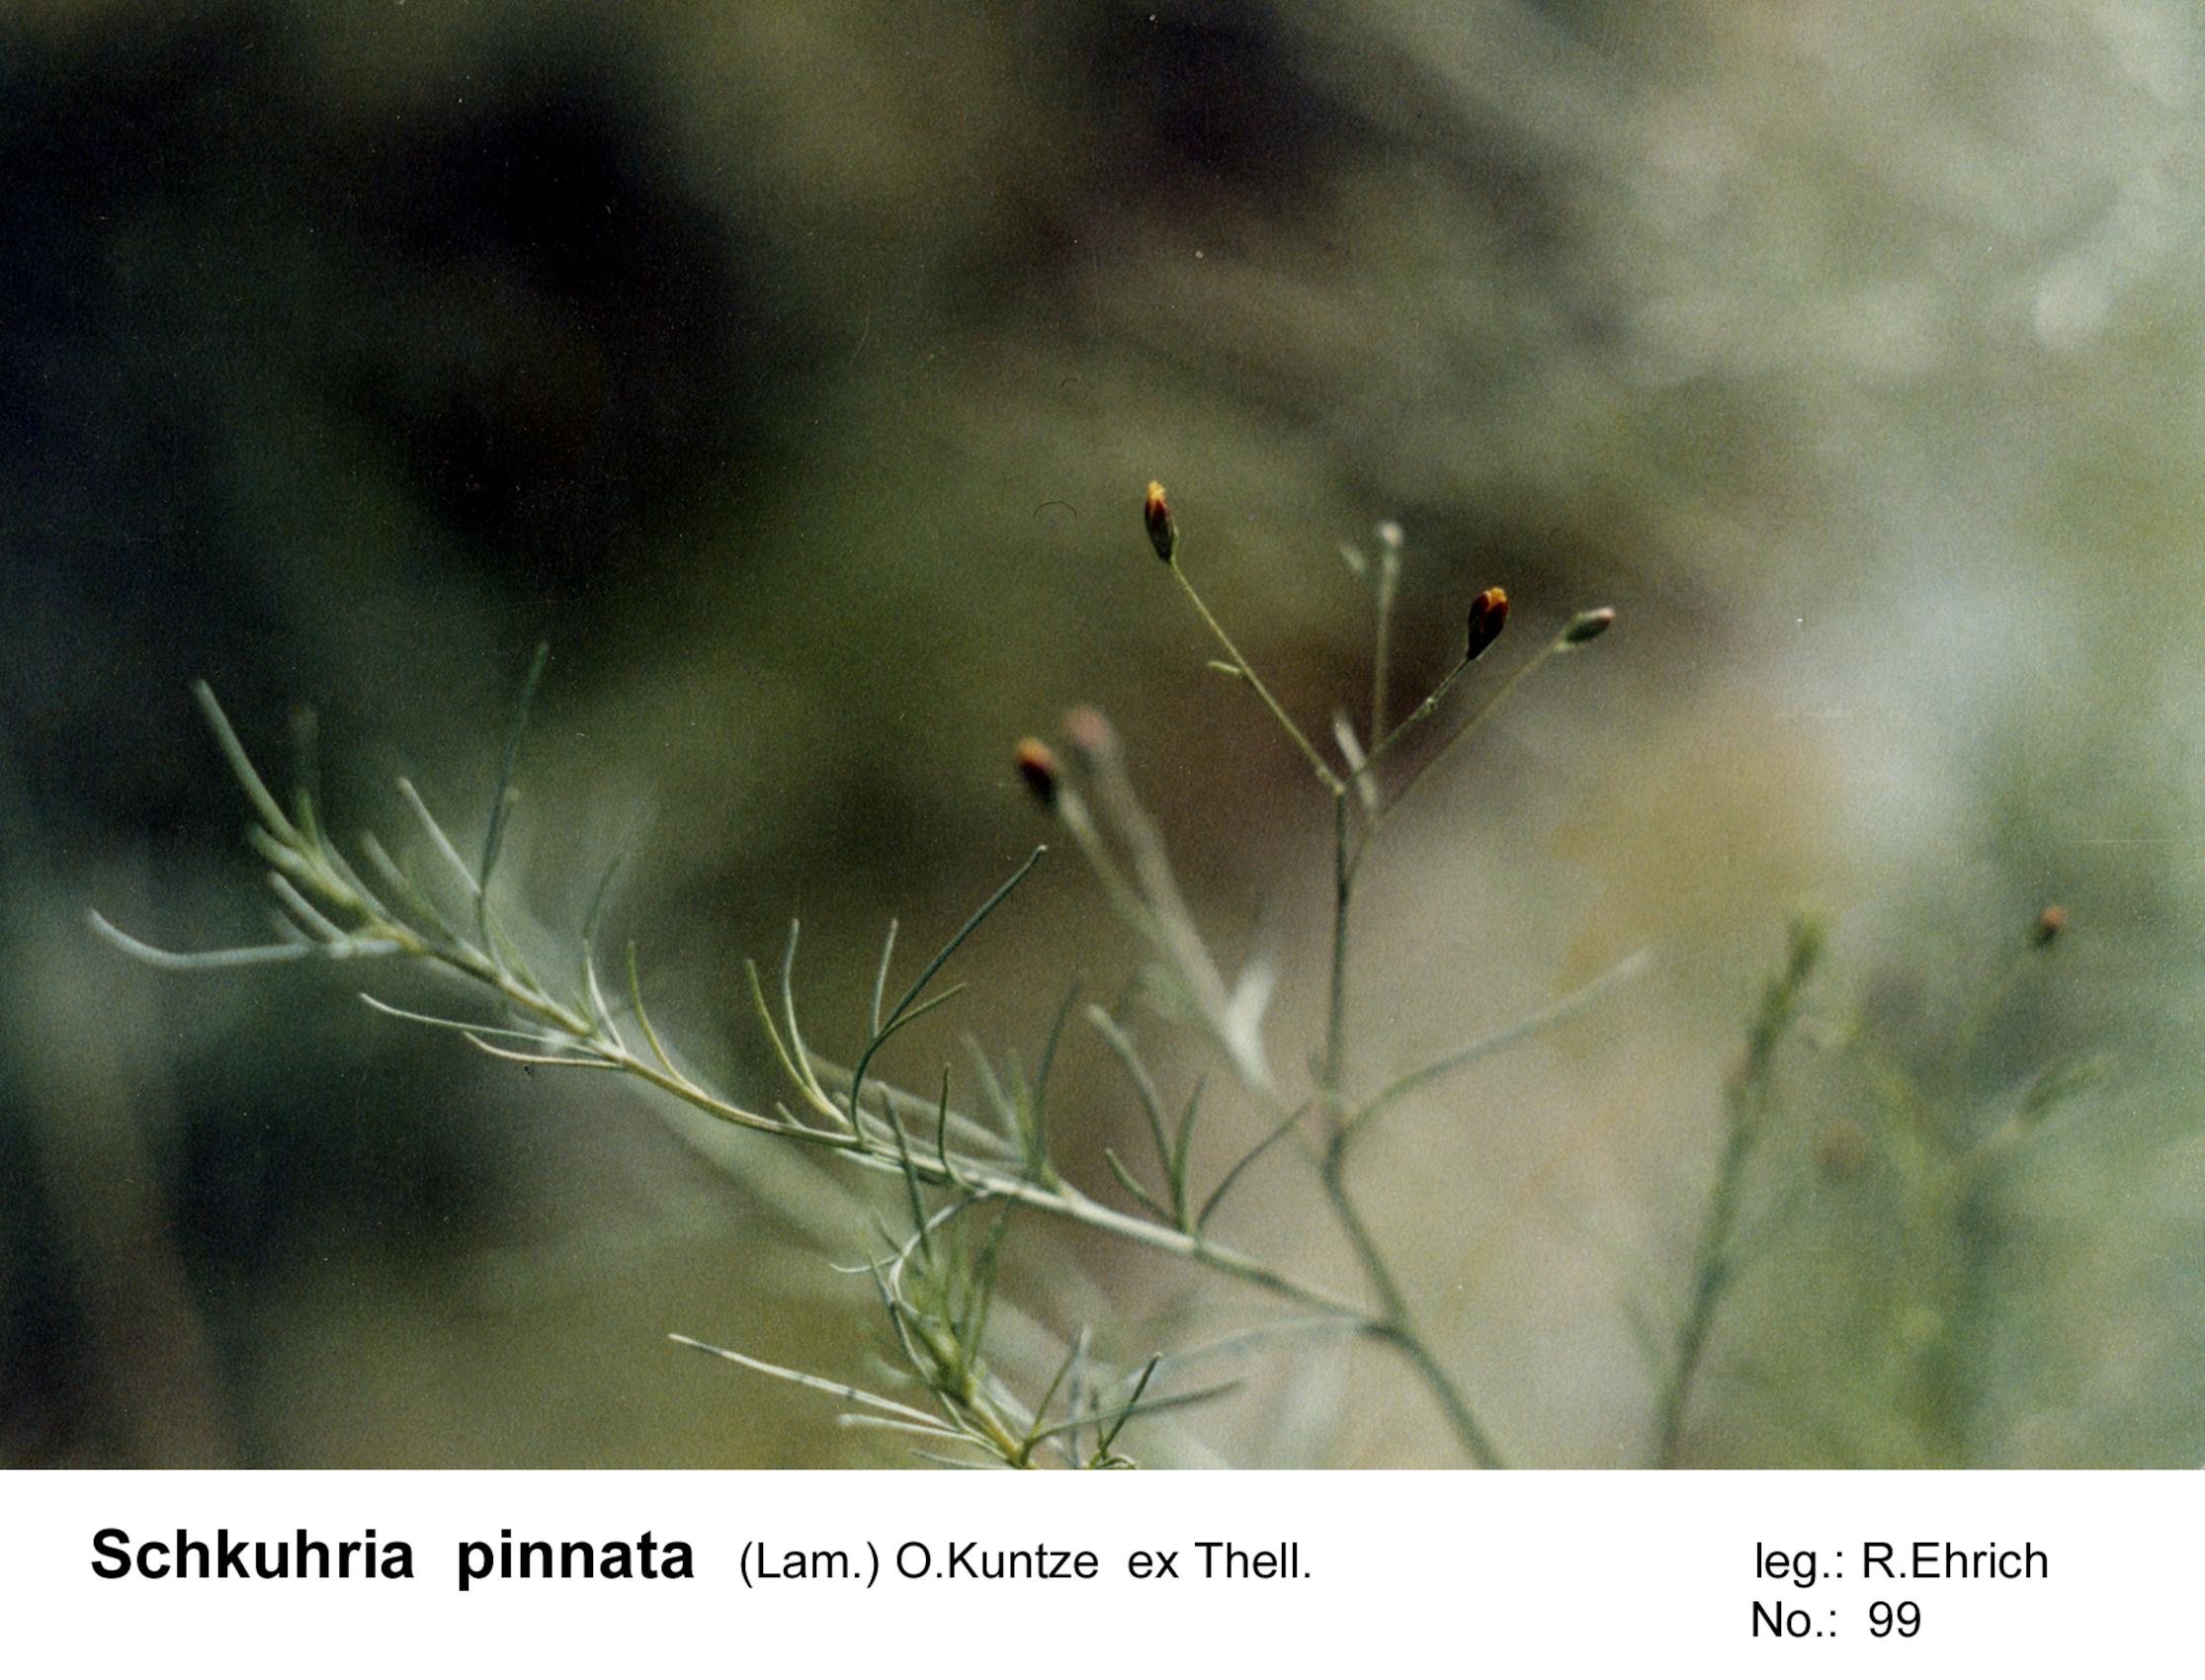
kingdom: Plantae
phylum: Tracheophyta
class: Magnoliopsida
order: Asterales
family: Asteraceae
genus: Schkuhria
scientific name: Schkuhria pinnata
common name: Dwarf marigold
